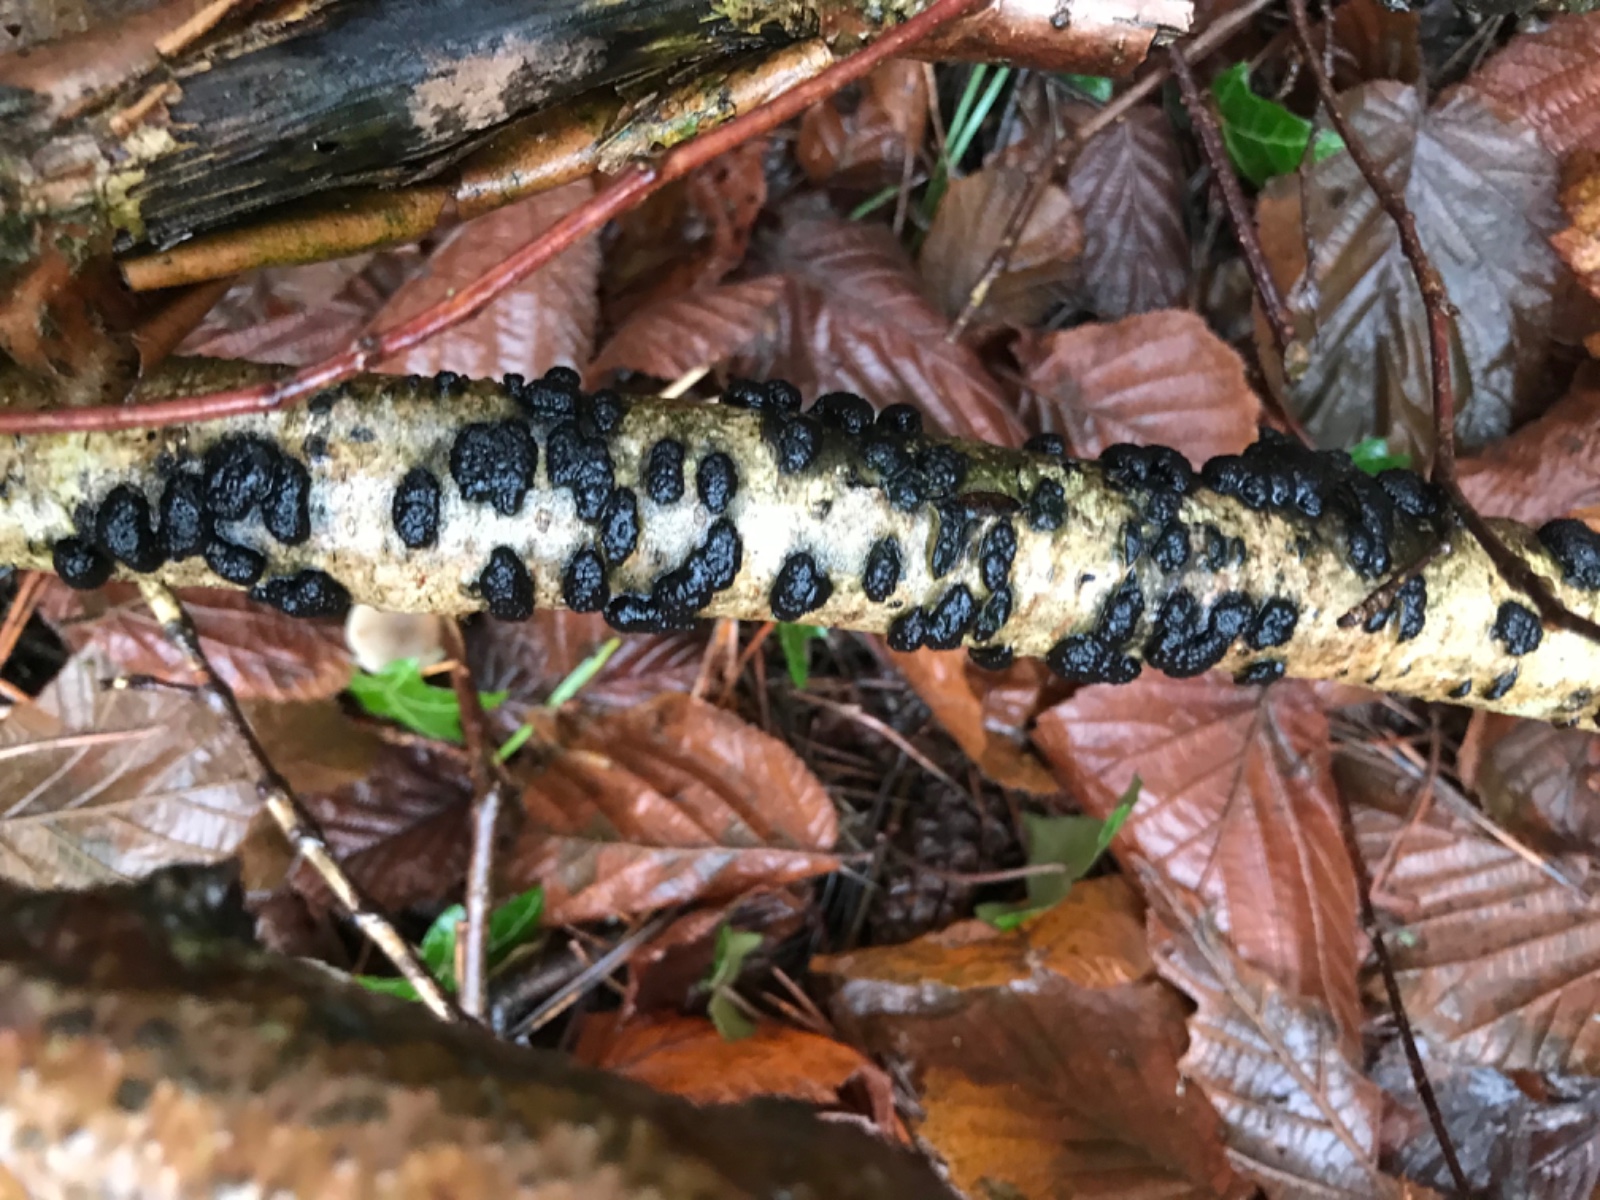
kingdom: Fungi
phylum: Ascomycota
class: Sordariomycetes
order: Xylariales
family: Hypoxylaceae
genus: Jackrogersella
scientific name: Jackrogersella multiformis
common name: foranderlig kulbær
